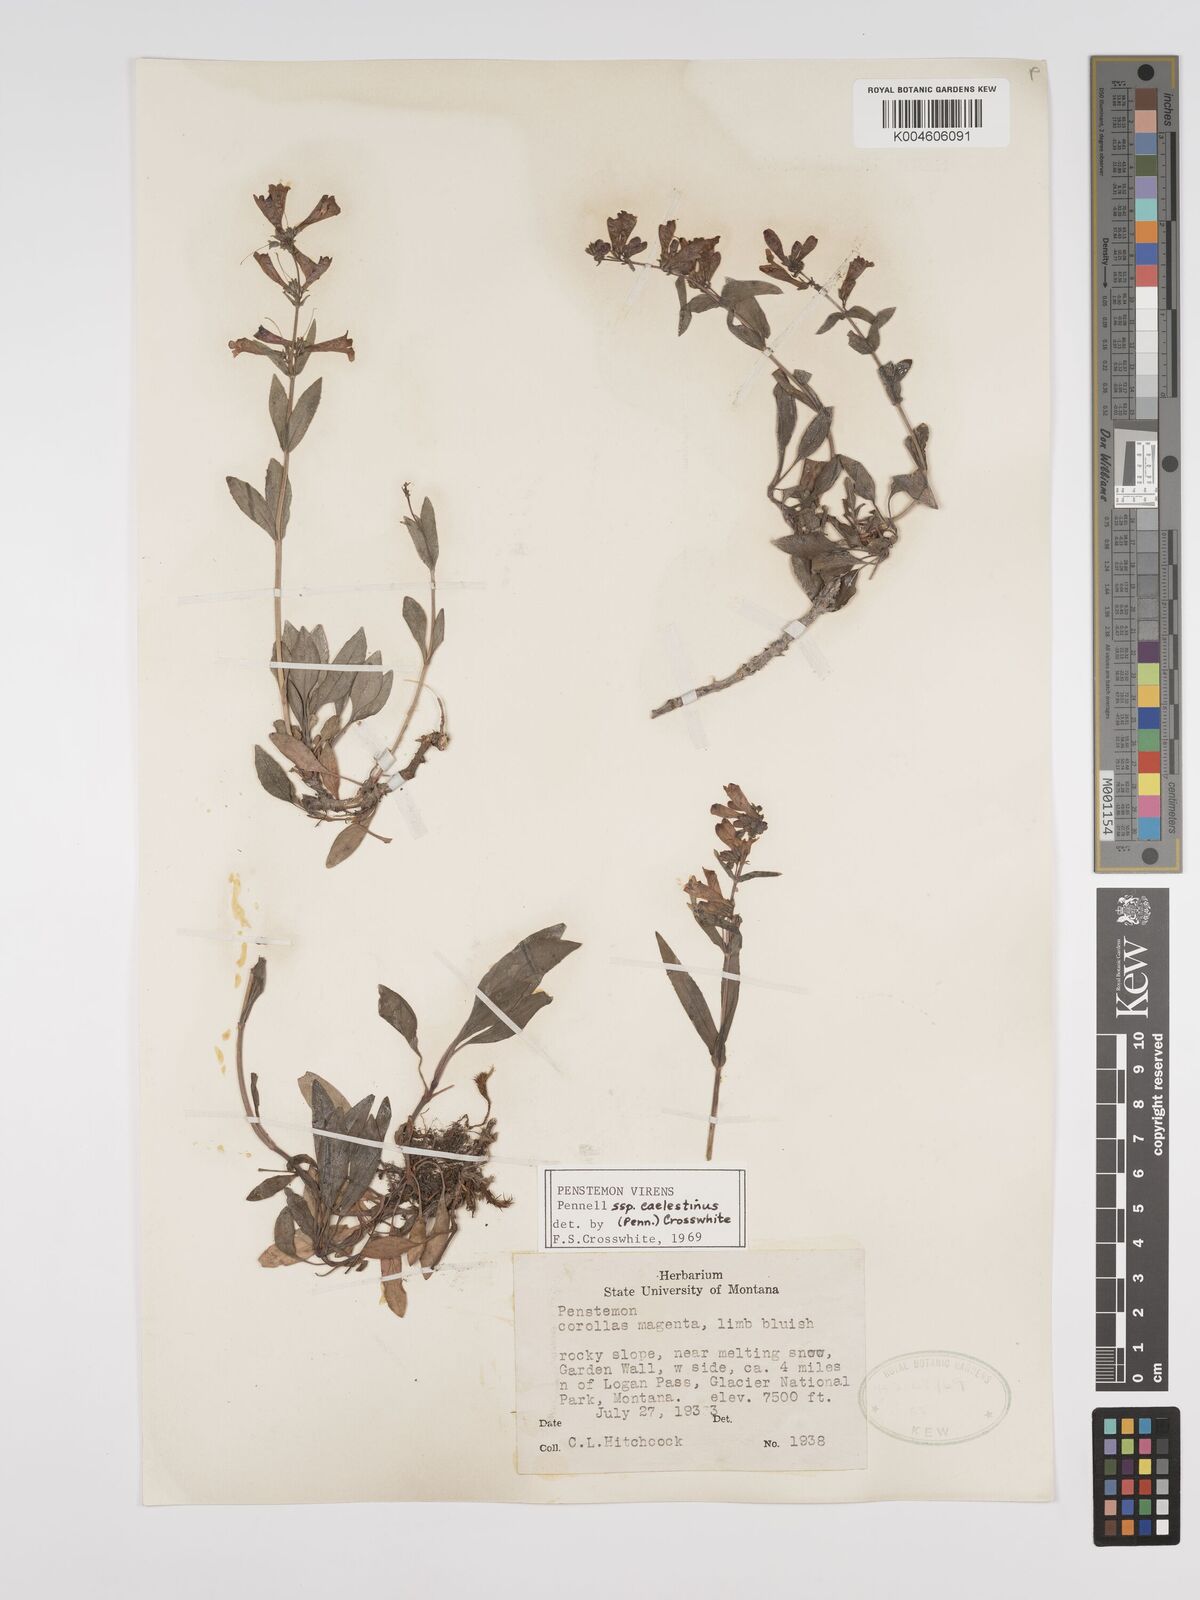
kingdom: Plantae
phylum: Tracheophyta
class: Magnoliopsida
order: Lamiales
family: Plantaginaceae
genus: Penstemon
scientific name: Penstemon virens
